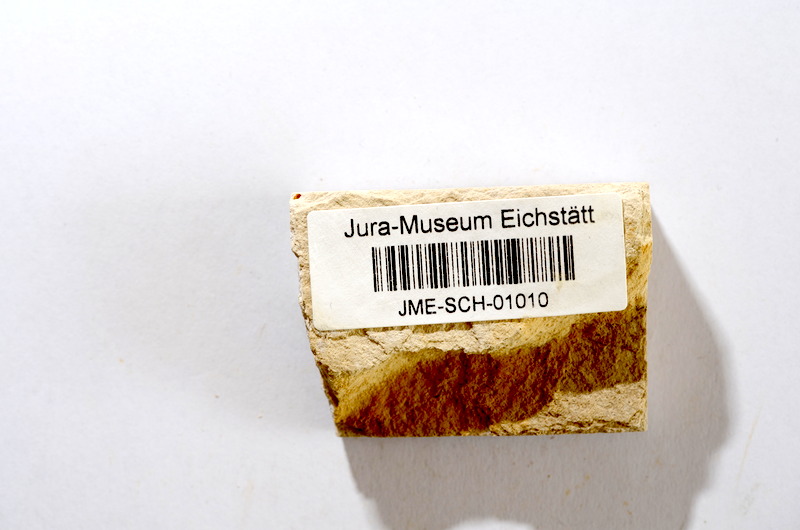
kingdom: Animalia
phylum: Chordata
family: Ascalaboidae
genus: Tharsis
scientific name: Tharsis dubius
